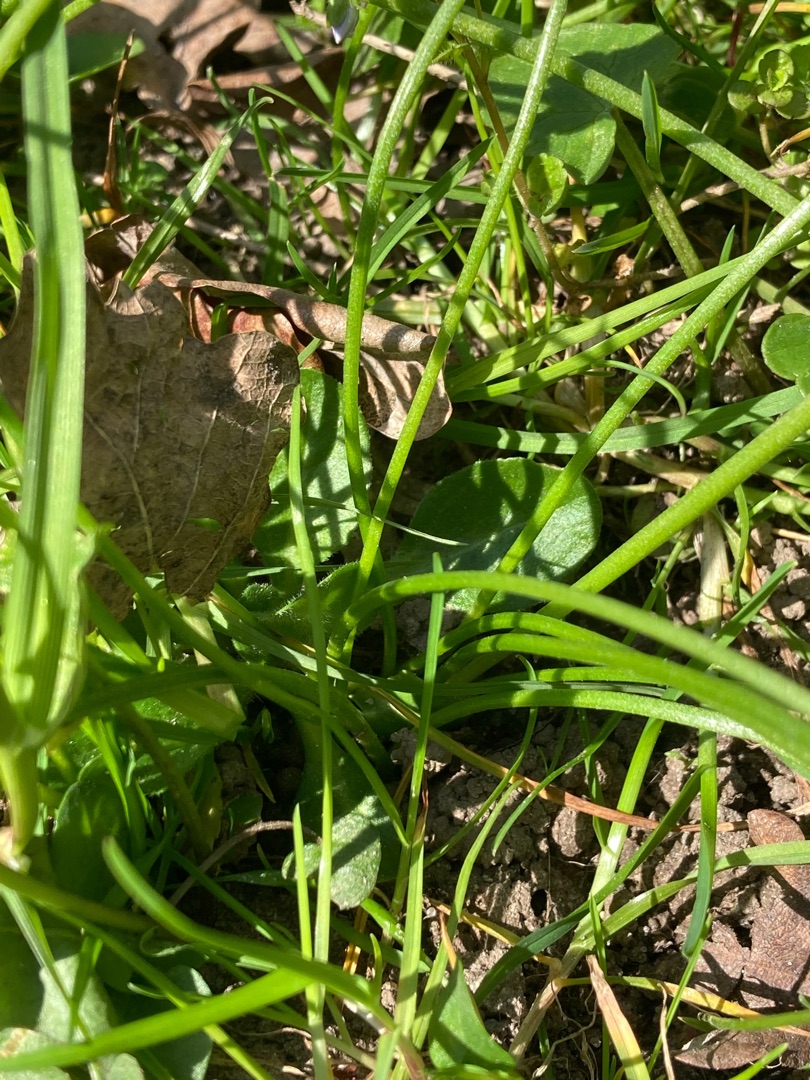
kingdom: Plantae
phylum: Tracheophyta
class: Liliopsida
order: Liliales
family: Liliaceae
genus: Gagea
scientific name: Gagea spathacea
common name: Hylster-guldstjerne
